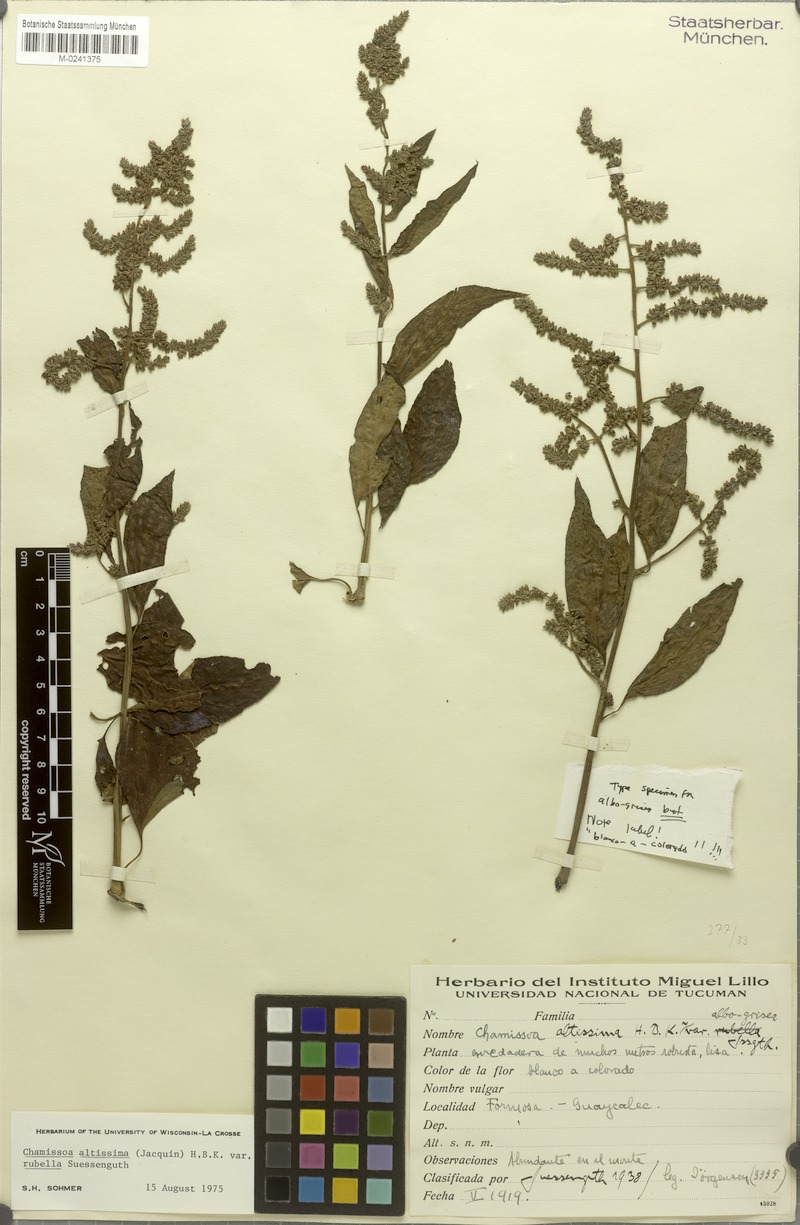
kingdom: Plantae
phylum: Tracheophyta
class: Magnoliopsida
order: Caryophyllales
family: Amaranthaceae
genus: Chamissoa
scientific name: Chamissoa altissima
